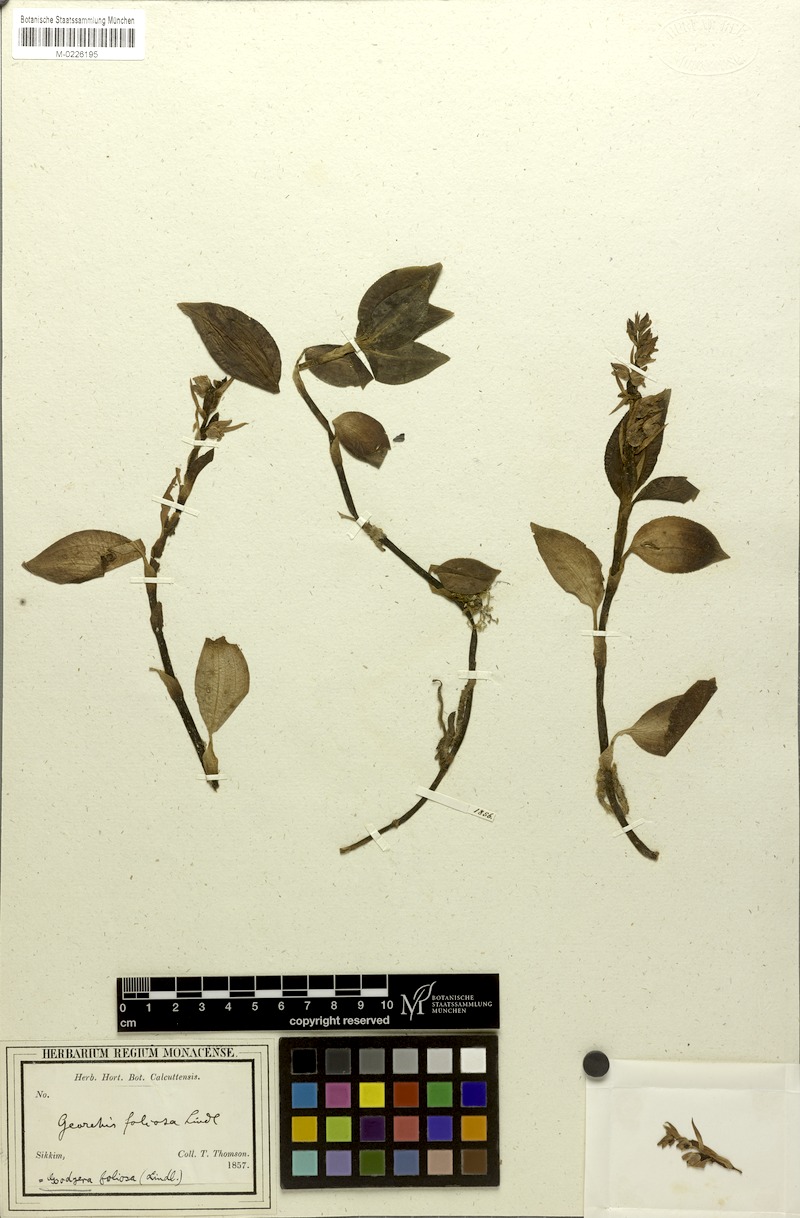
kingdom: Plantae
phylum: Tracheophyta
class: Liliopsida
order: Asparagales
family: Orchidaceae
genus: Goodyera
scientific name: Goodyera foliosa
